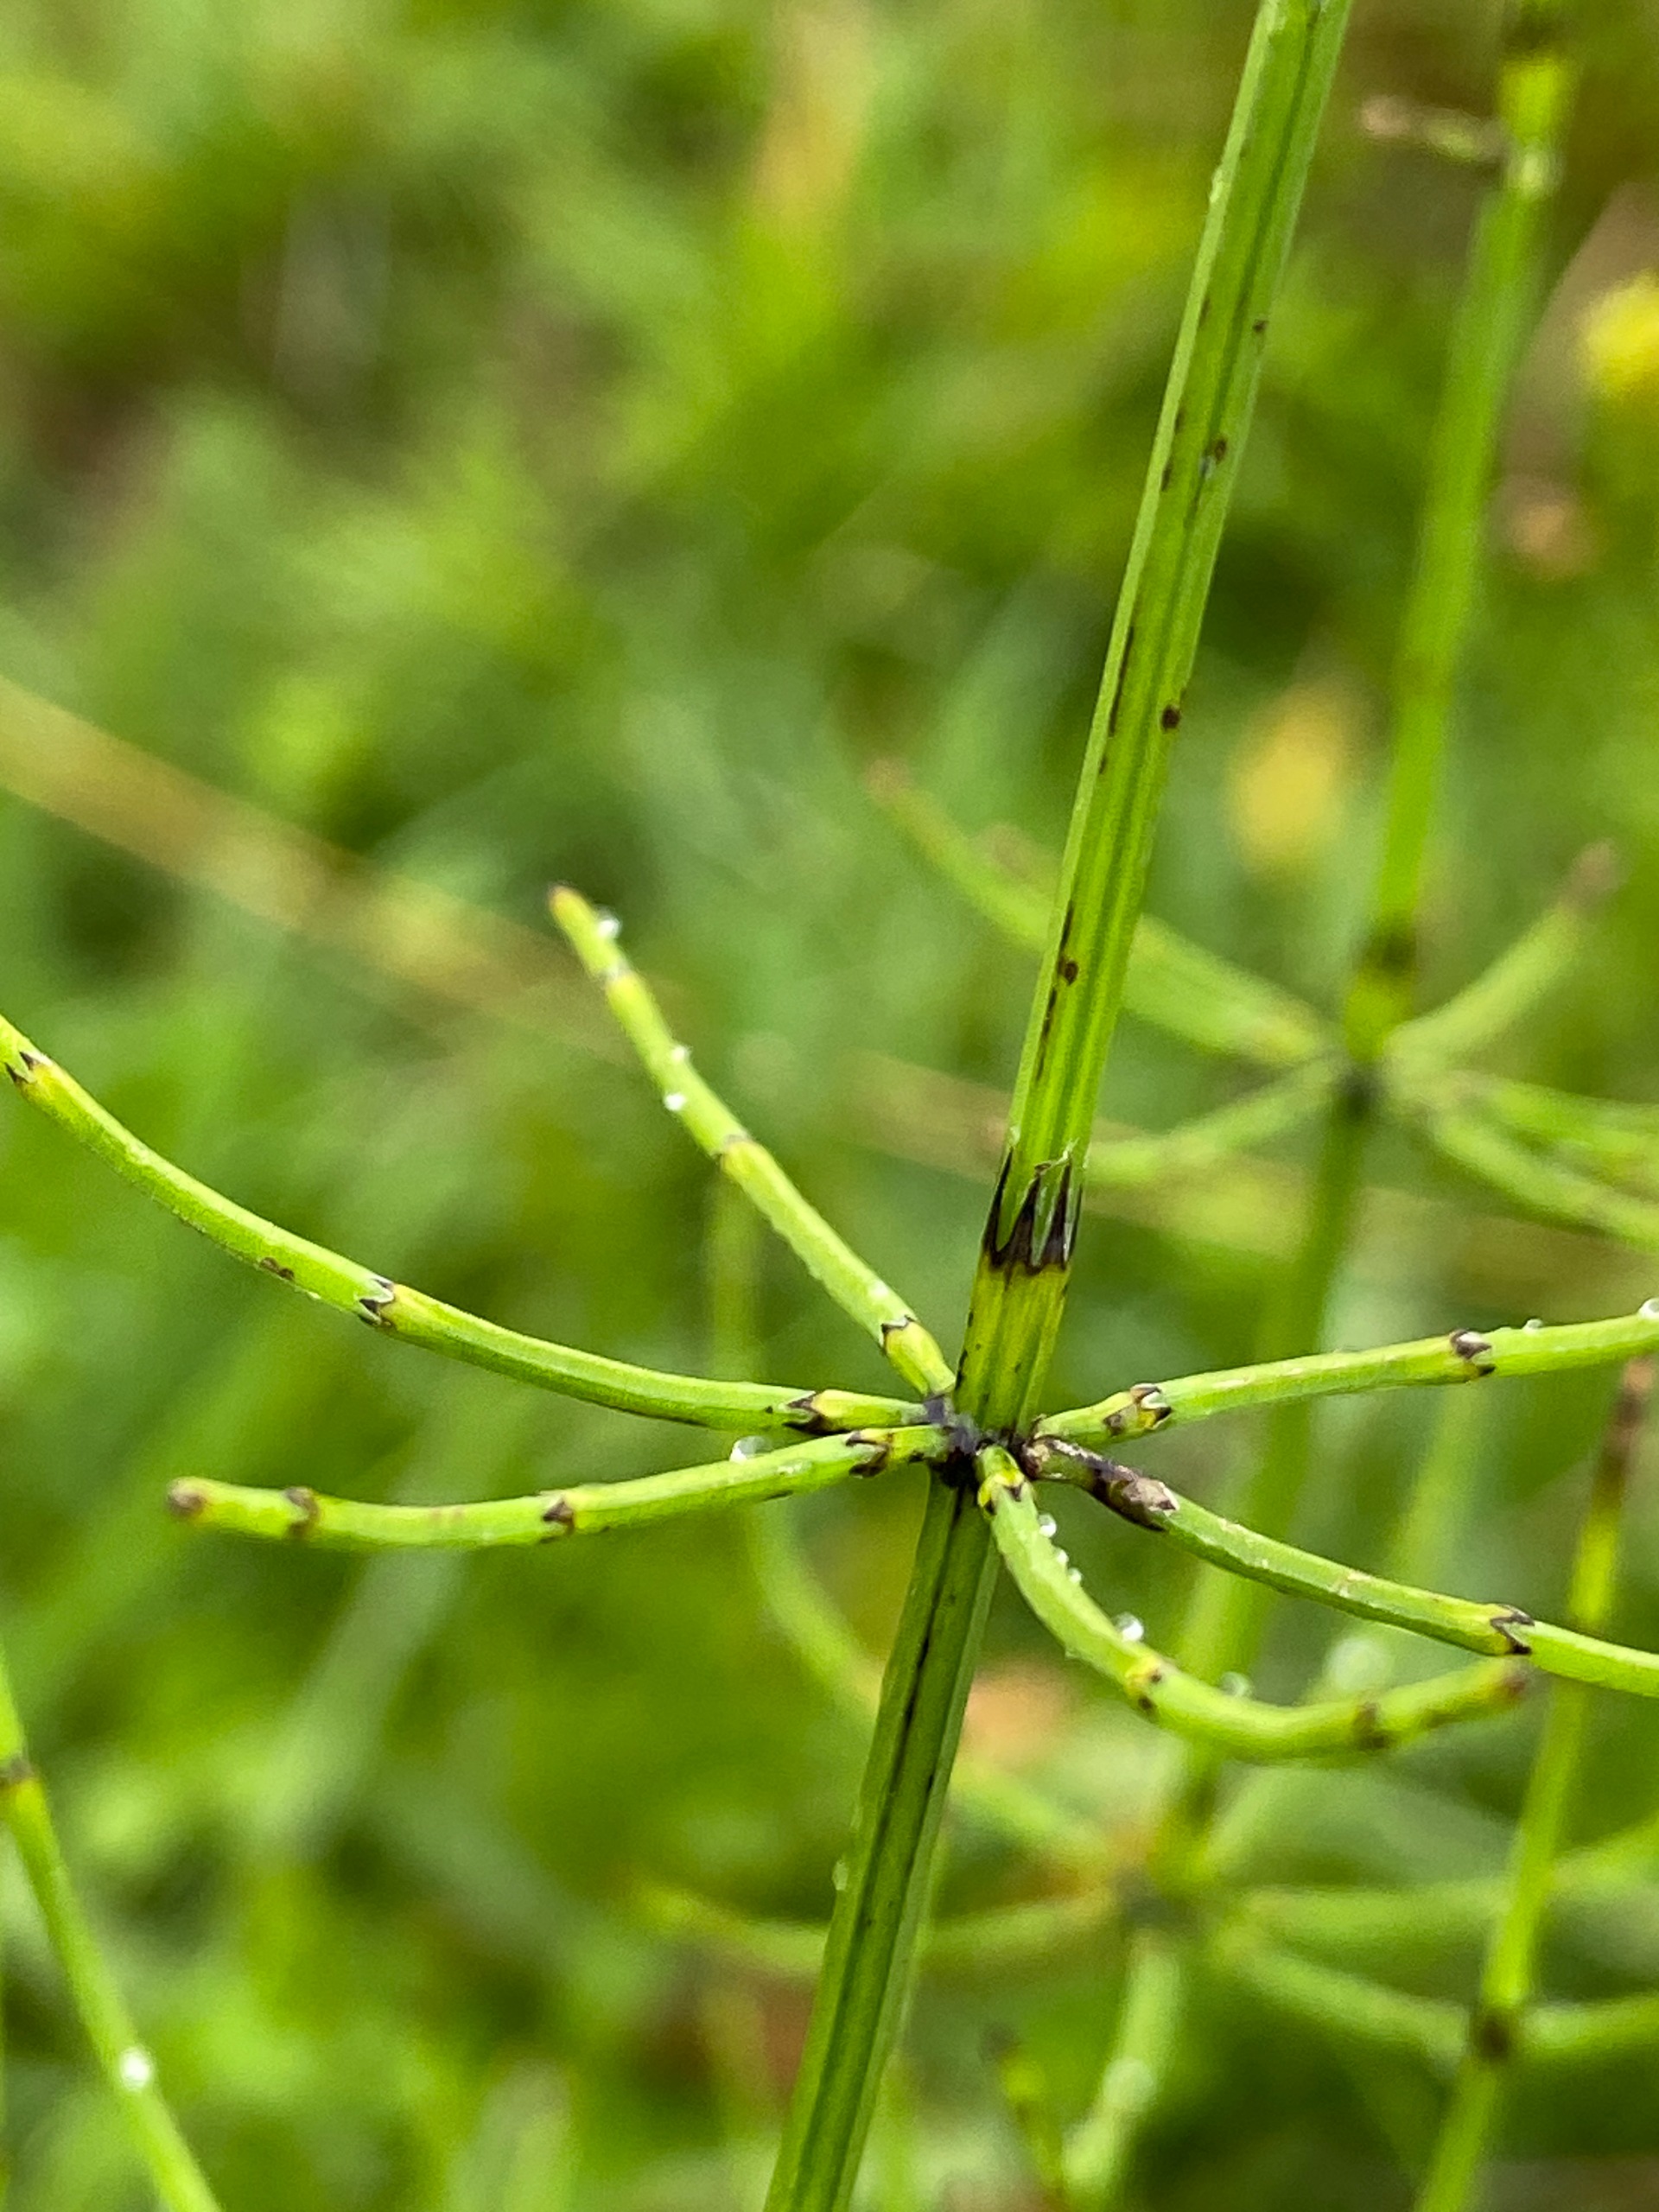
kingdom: Plantae
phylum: Tracheophyta
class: Polypodiopsida
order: Equisetales
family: Equisetaceae
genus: Equisetum
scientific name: Equisetum palustre
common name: Kær-padderok
